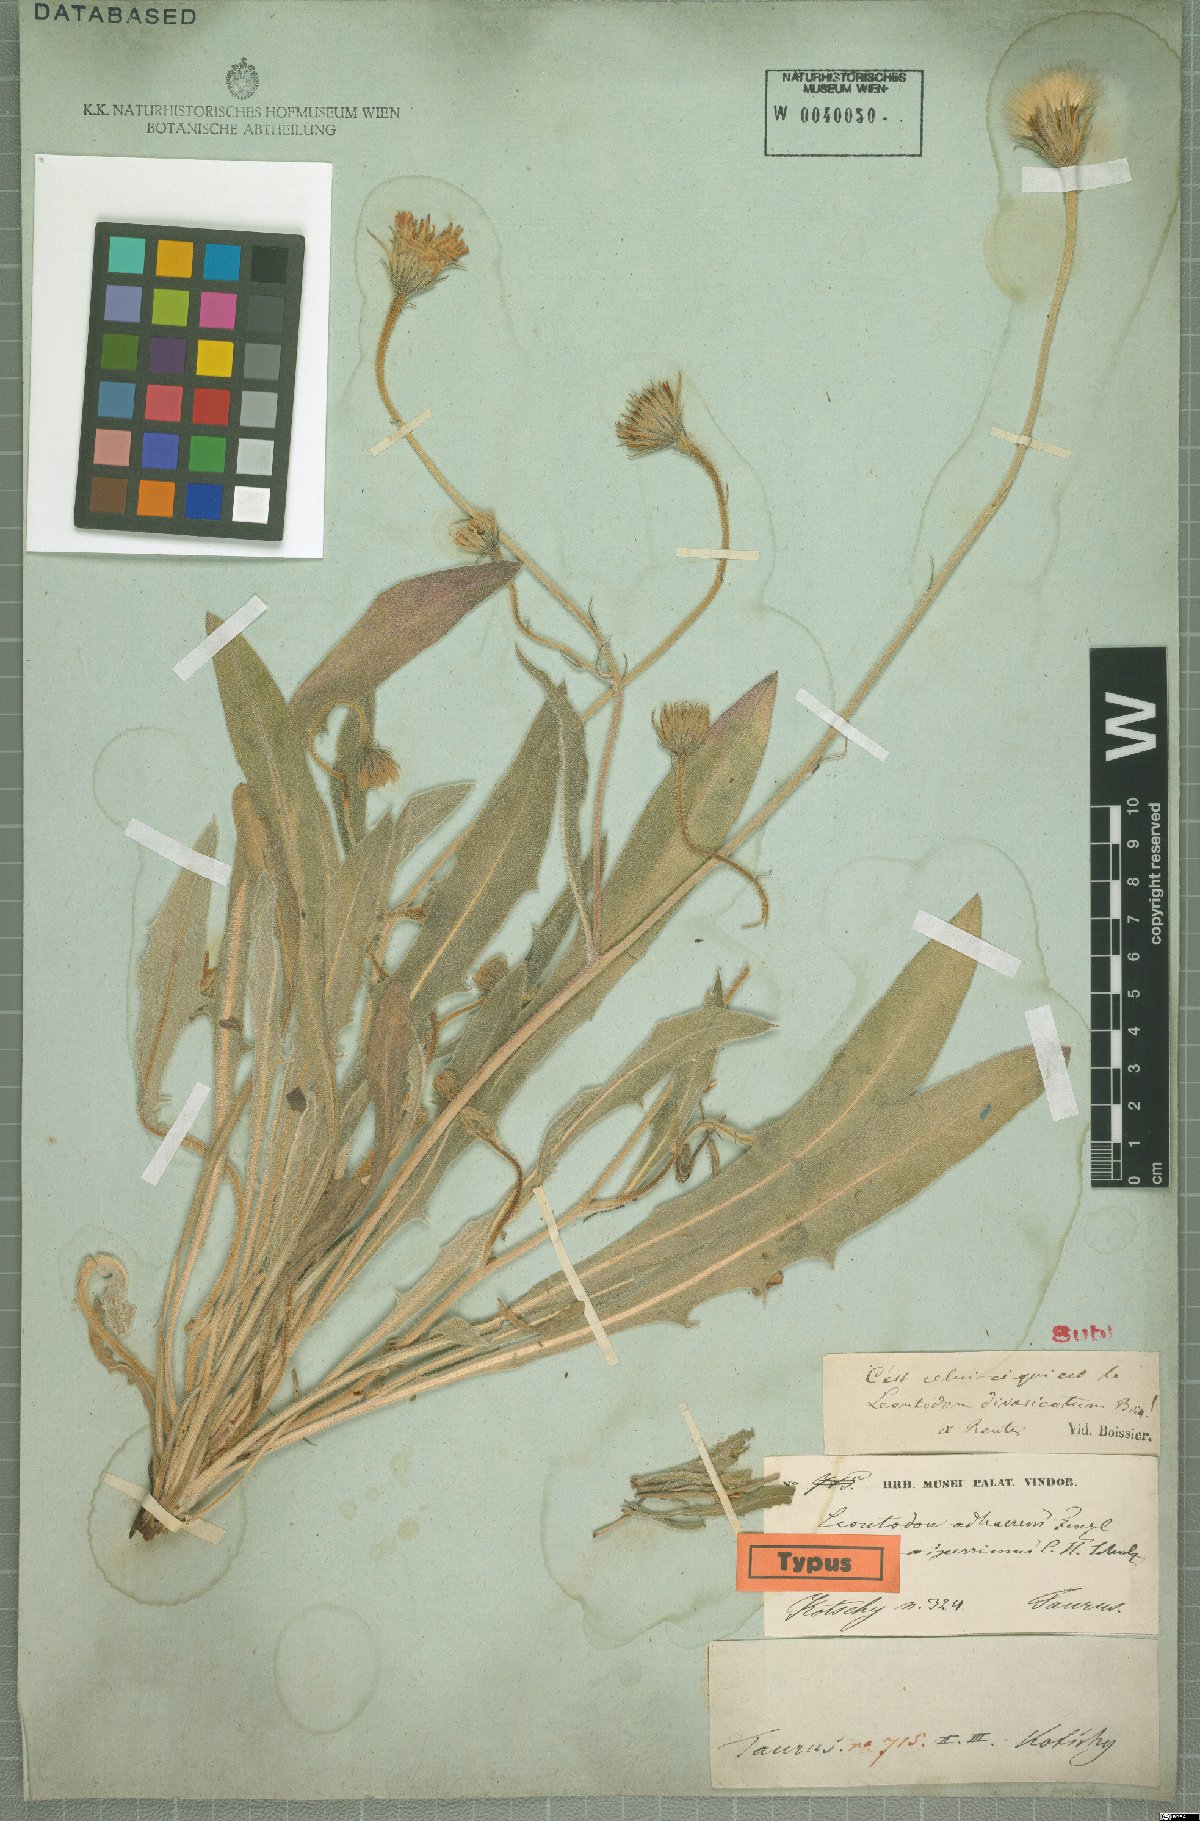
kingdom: Plantae
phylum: Tracheophyta
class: Magnoliopsida
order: Asterales
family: Asteraceae
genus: Leontodon
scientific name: Leontodon oxylepis
